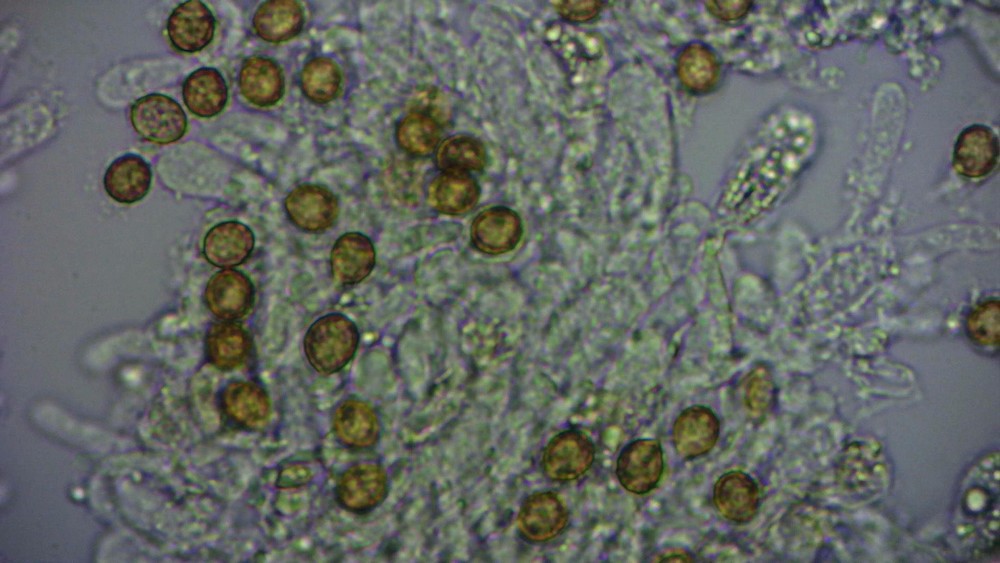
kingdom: Fungi
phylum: Basidiomycota
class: Agaricomycetes
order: Agaricales
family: Cortinariaceae
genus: Cortinarius
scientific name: Cortinarius
